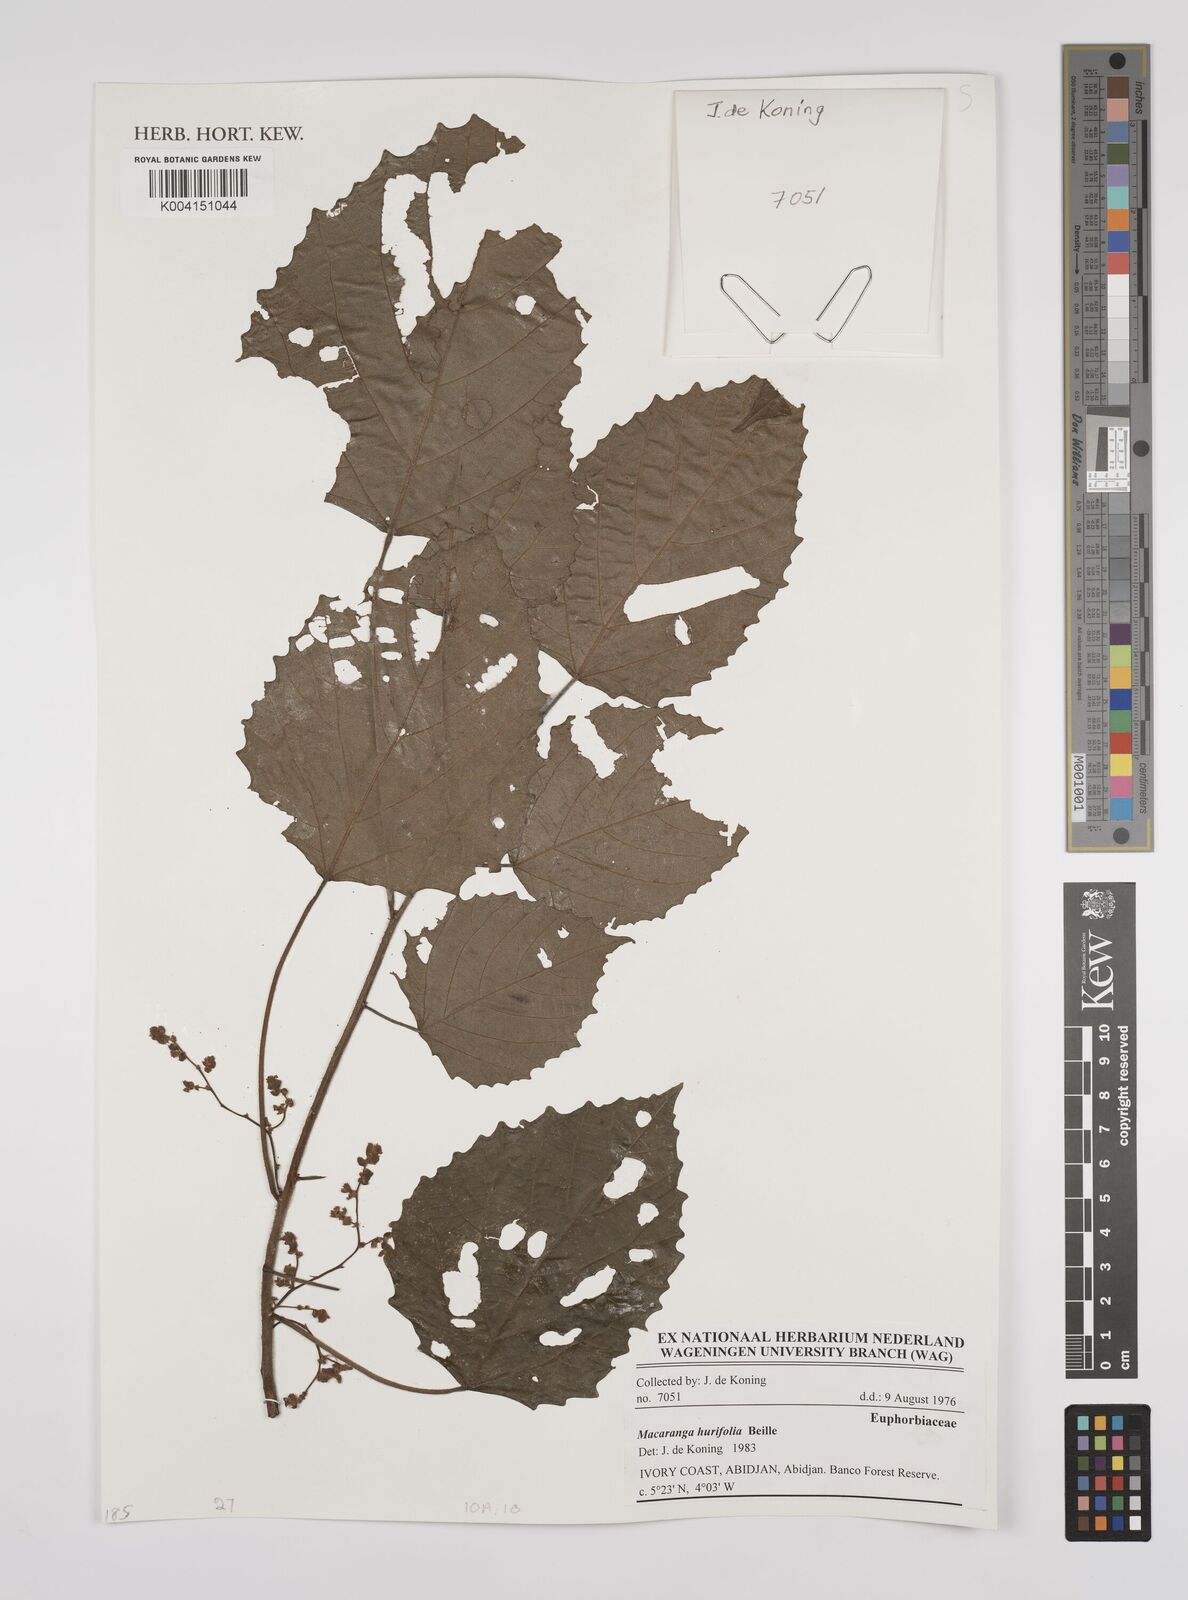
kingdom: Plantae
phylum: Tracheophyta
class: Magnoliopsida
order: Malpighiales
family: Euphorbiaceae
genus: Macaranga
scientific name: Macaranga hurifolia
